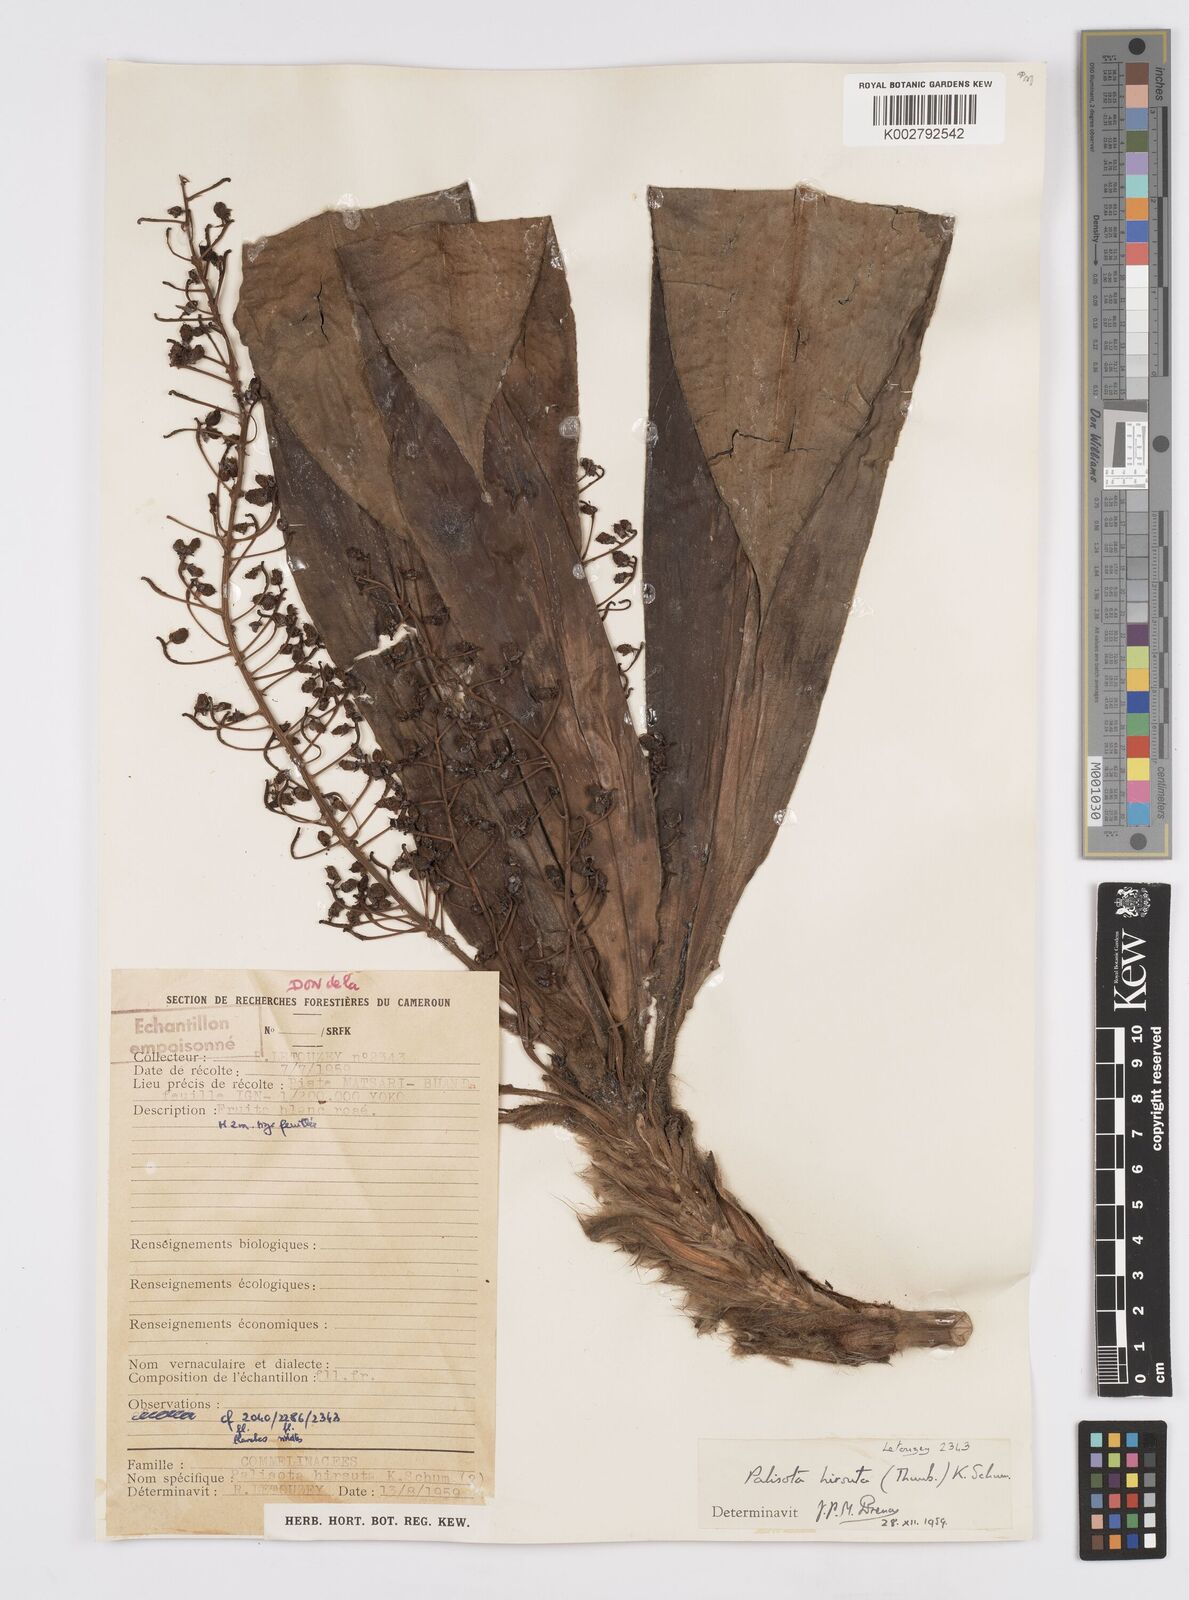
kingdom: Plantae
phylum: Tracheophyta
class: Liliopsida
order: Commelinales
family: Commelinaceae
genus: Palisota
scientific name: Palisota hirsuta
